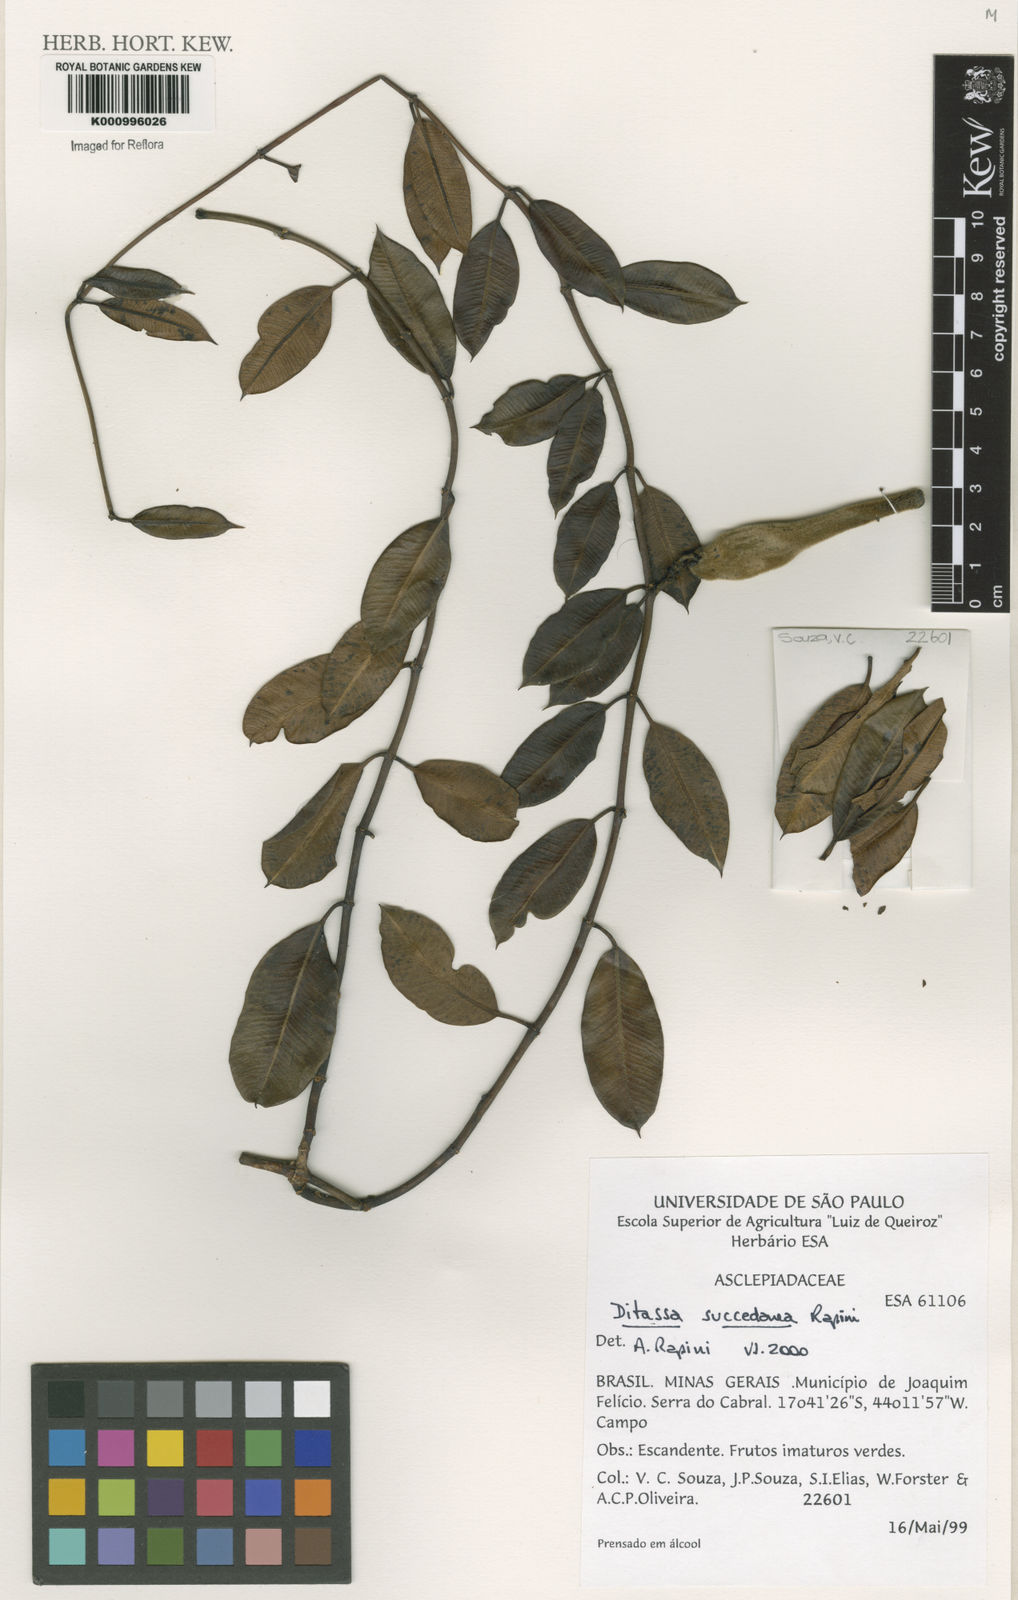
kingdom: Plantae
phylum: Tracheophyta
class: Magnoliopsida
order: Gentianales
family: Apocynaceae
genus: Ditassa
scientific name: Ditassa succedanea
